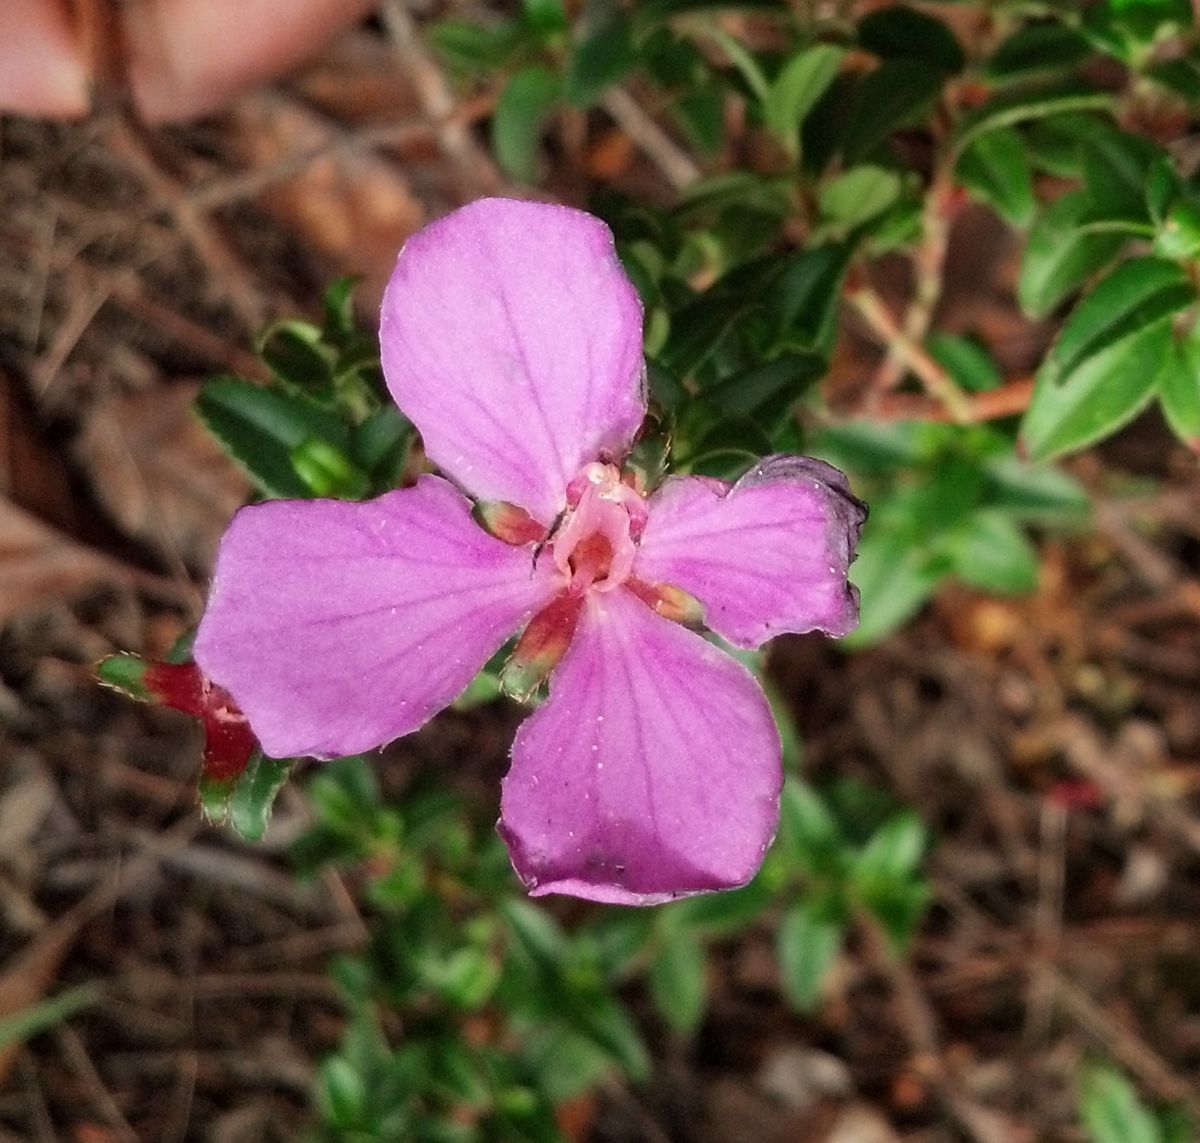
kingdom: Plantae
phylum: Tracheophyta
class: Magnoliopsida
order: Myrtales
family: Melastomataceae
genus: Monochaetum
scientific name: Monochaetum
